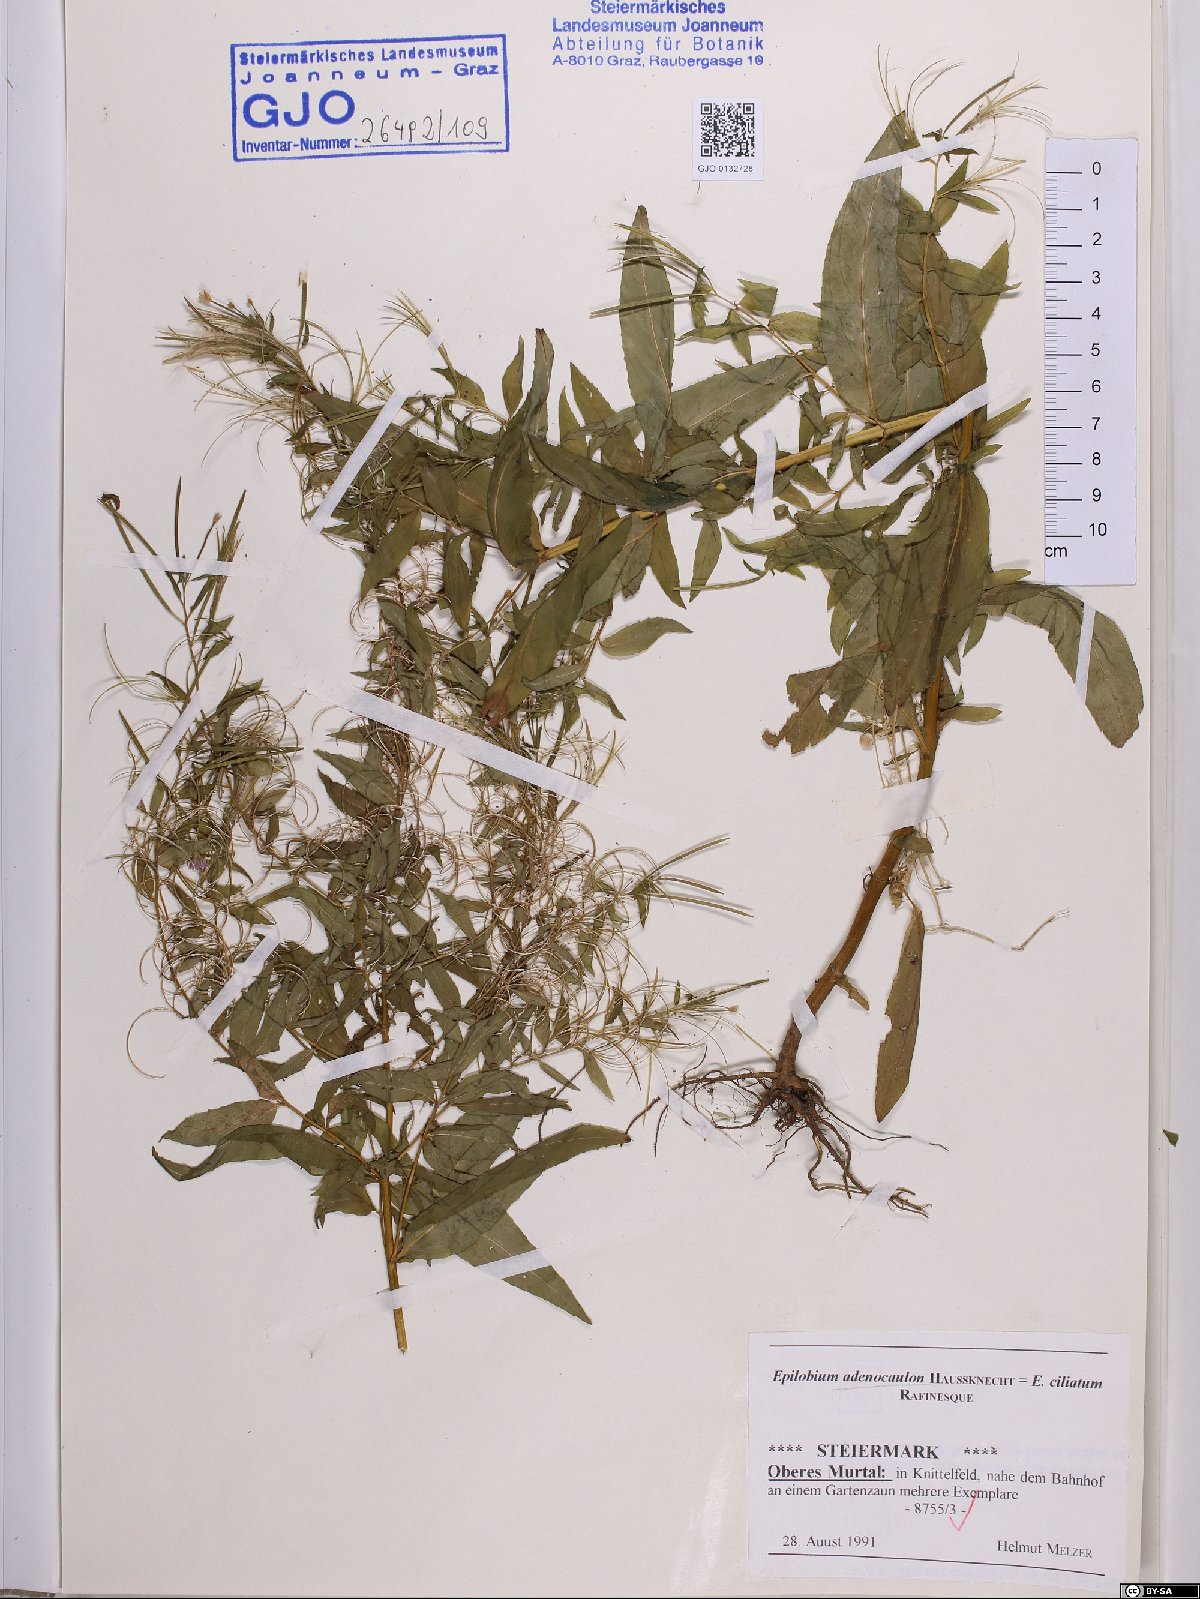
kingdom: Plantae
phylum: Tracheophyta
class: Magnoliopsida
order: Myrtales
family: Onagraceae
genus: Epilobium
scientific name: Epilobium ciliatum
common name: American willowherb
